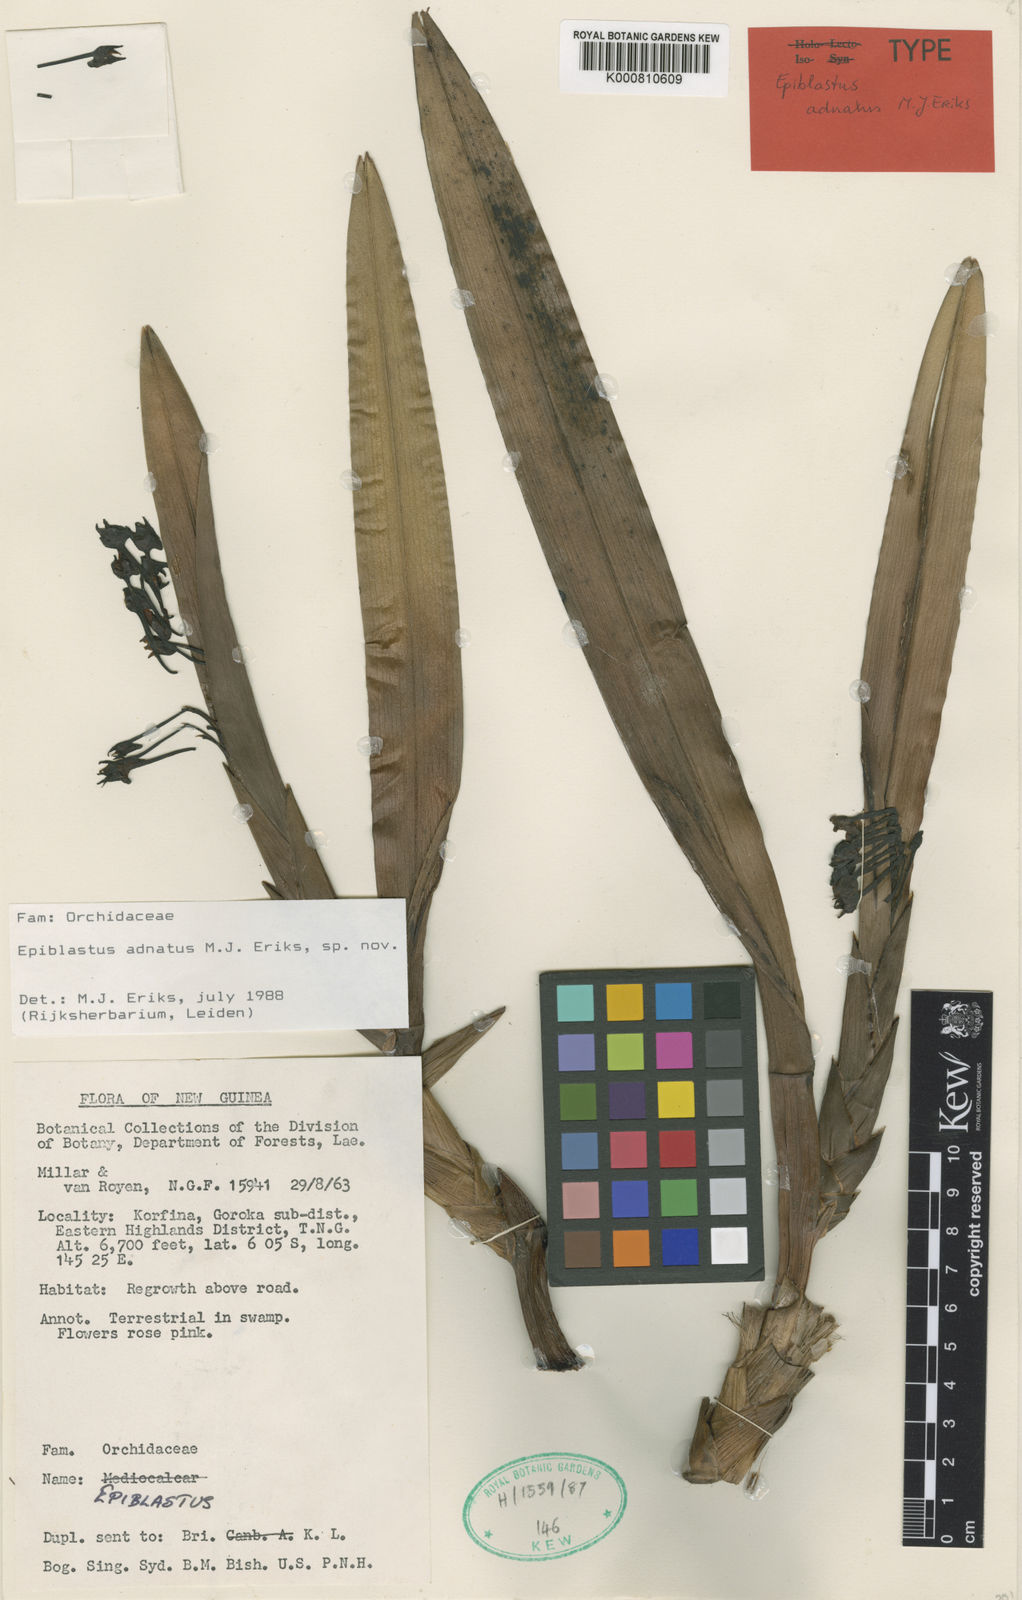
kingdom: Plantae
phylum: Tracheophyta
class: Liliopsida
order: Asparagales
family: Orchidaceae
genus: Epiblastus
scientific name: Epiblastus
